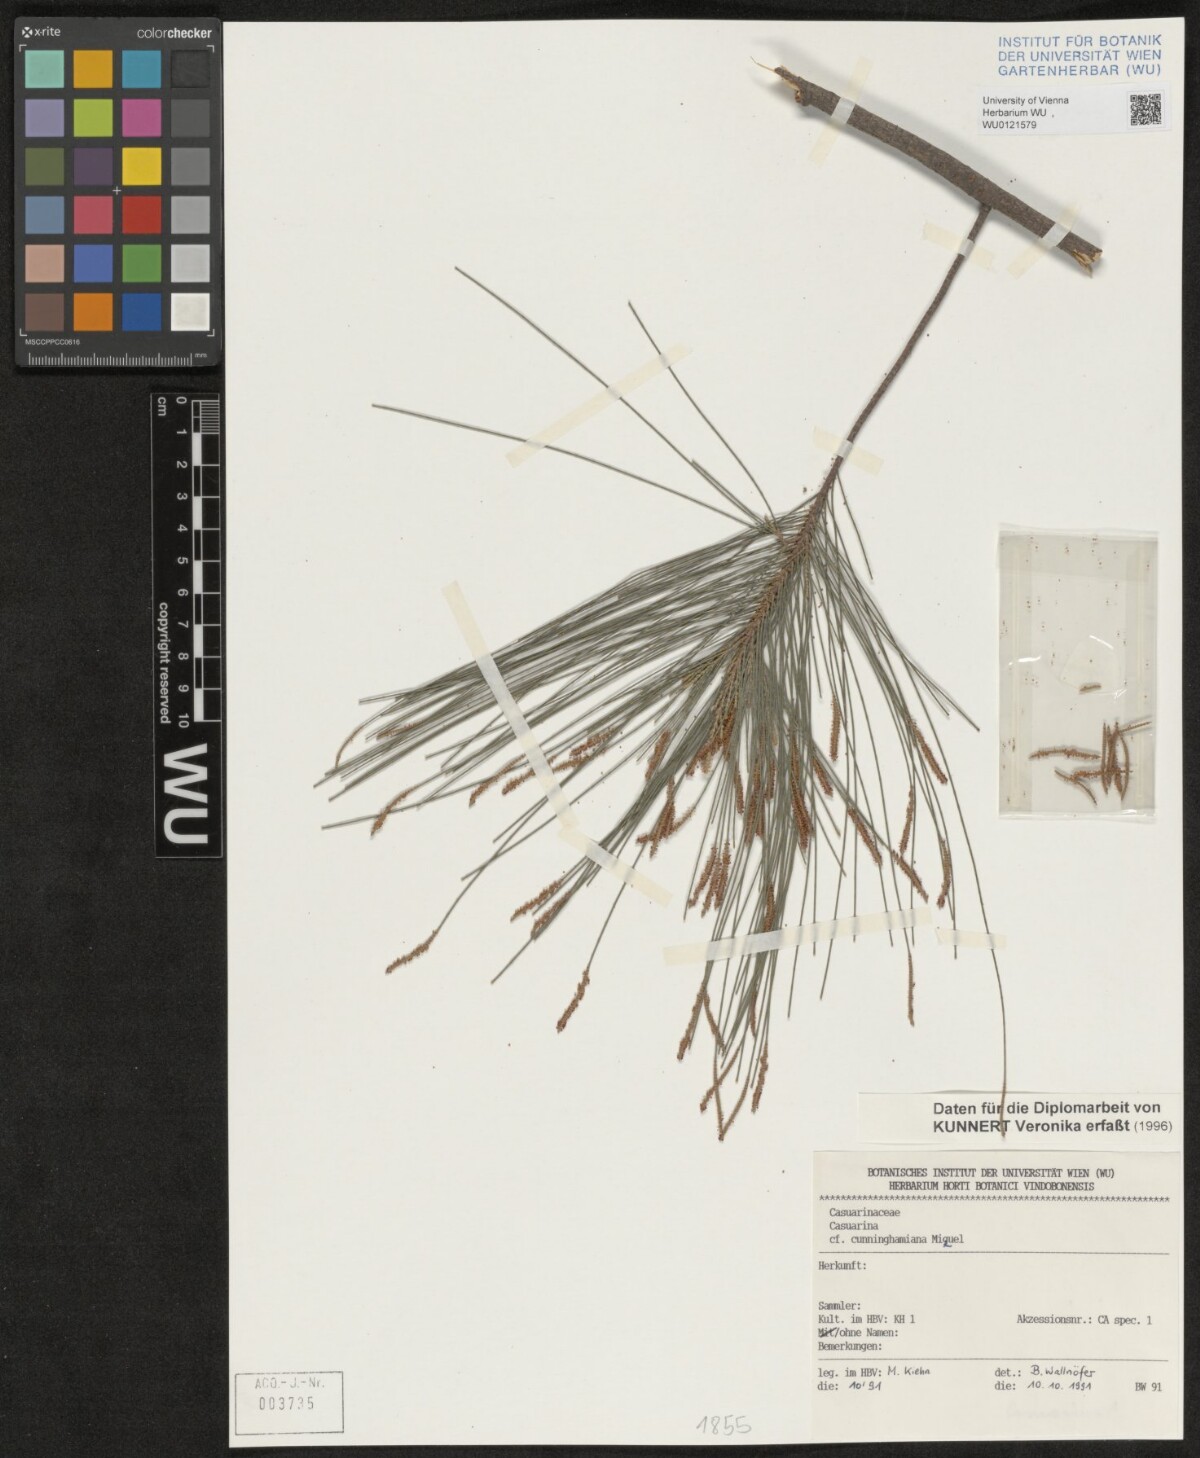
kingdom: Plantae
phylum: Tracheophyta
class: Magnoliopsida
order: Fagales
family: Casuarinaceae
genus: Casuarina
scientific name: Casuarina cunninghamiana
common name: River sheoak
